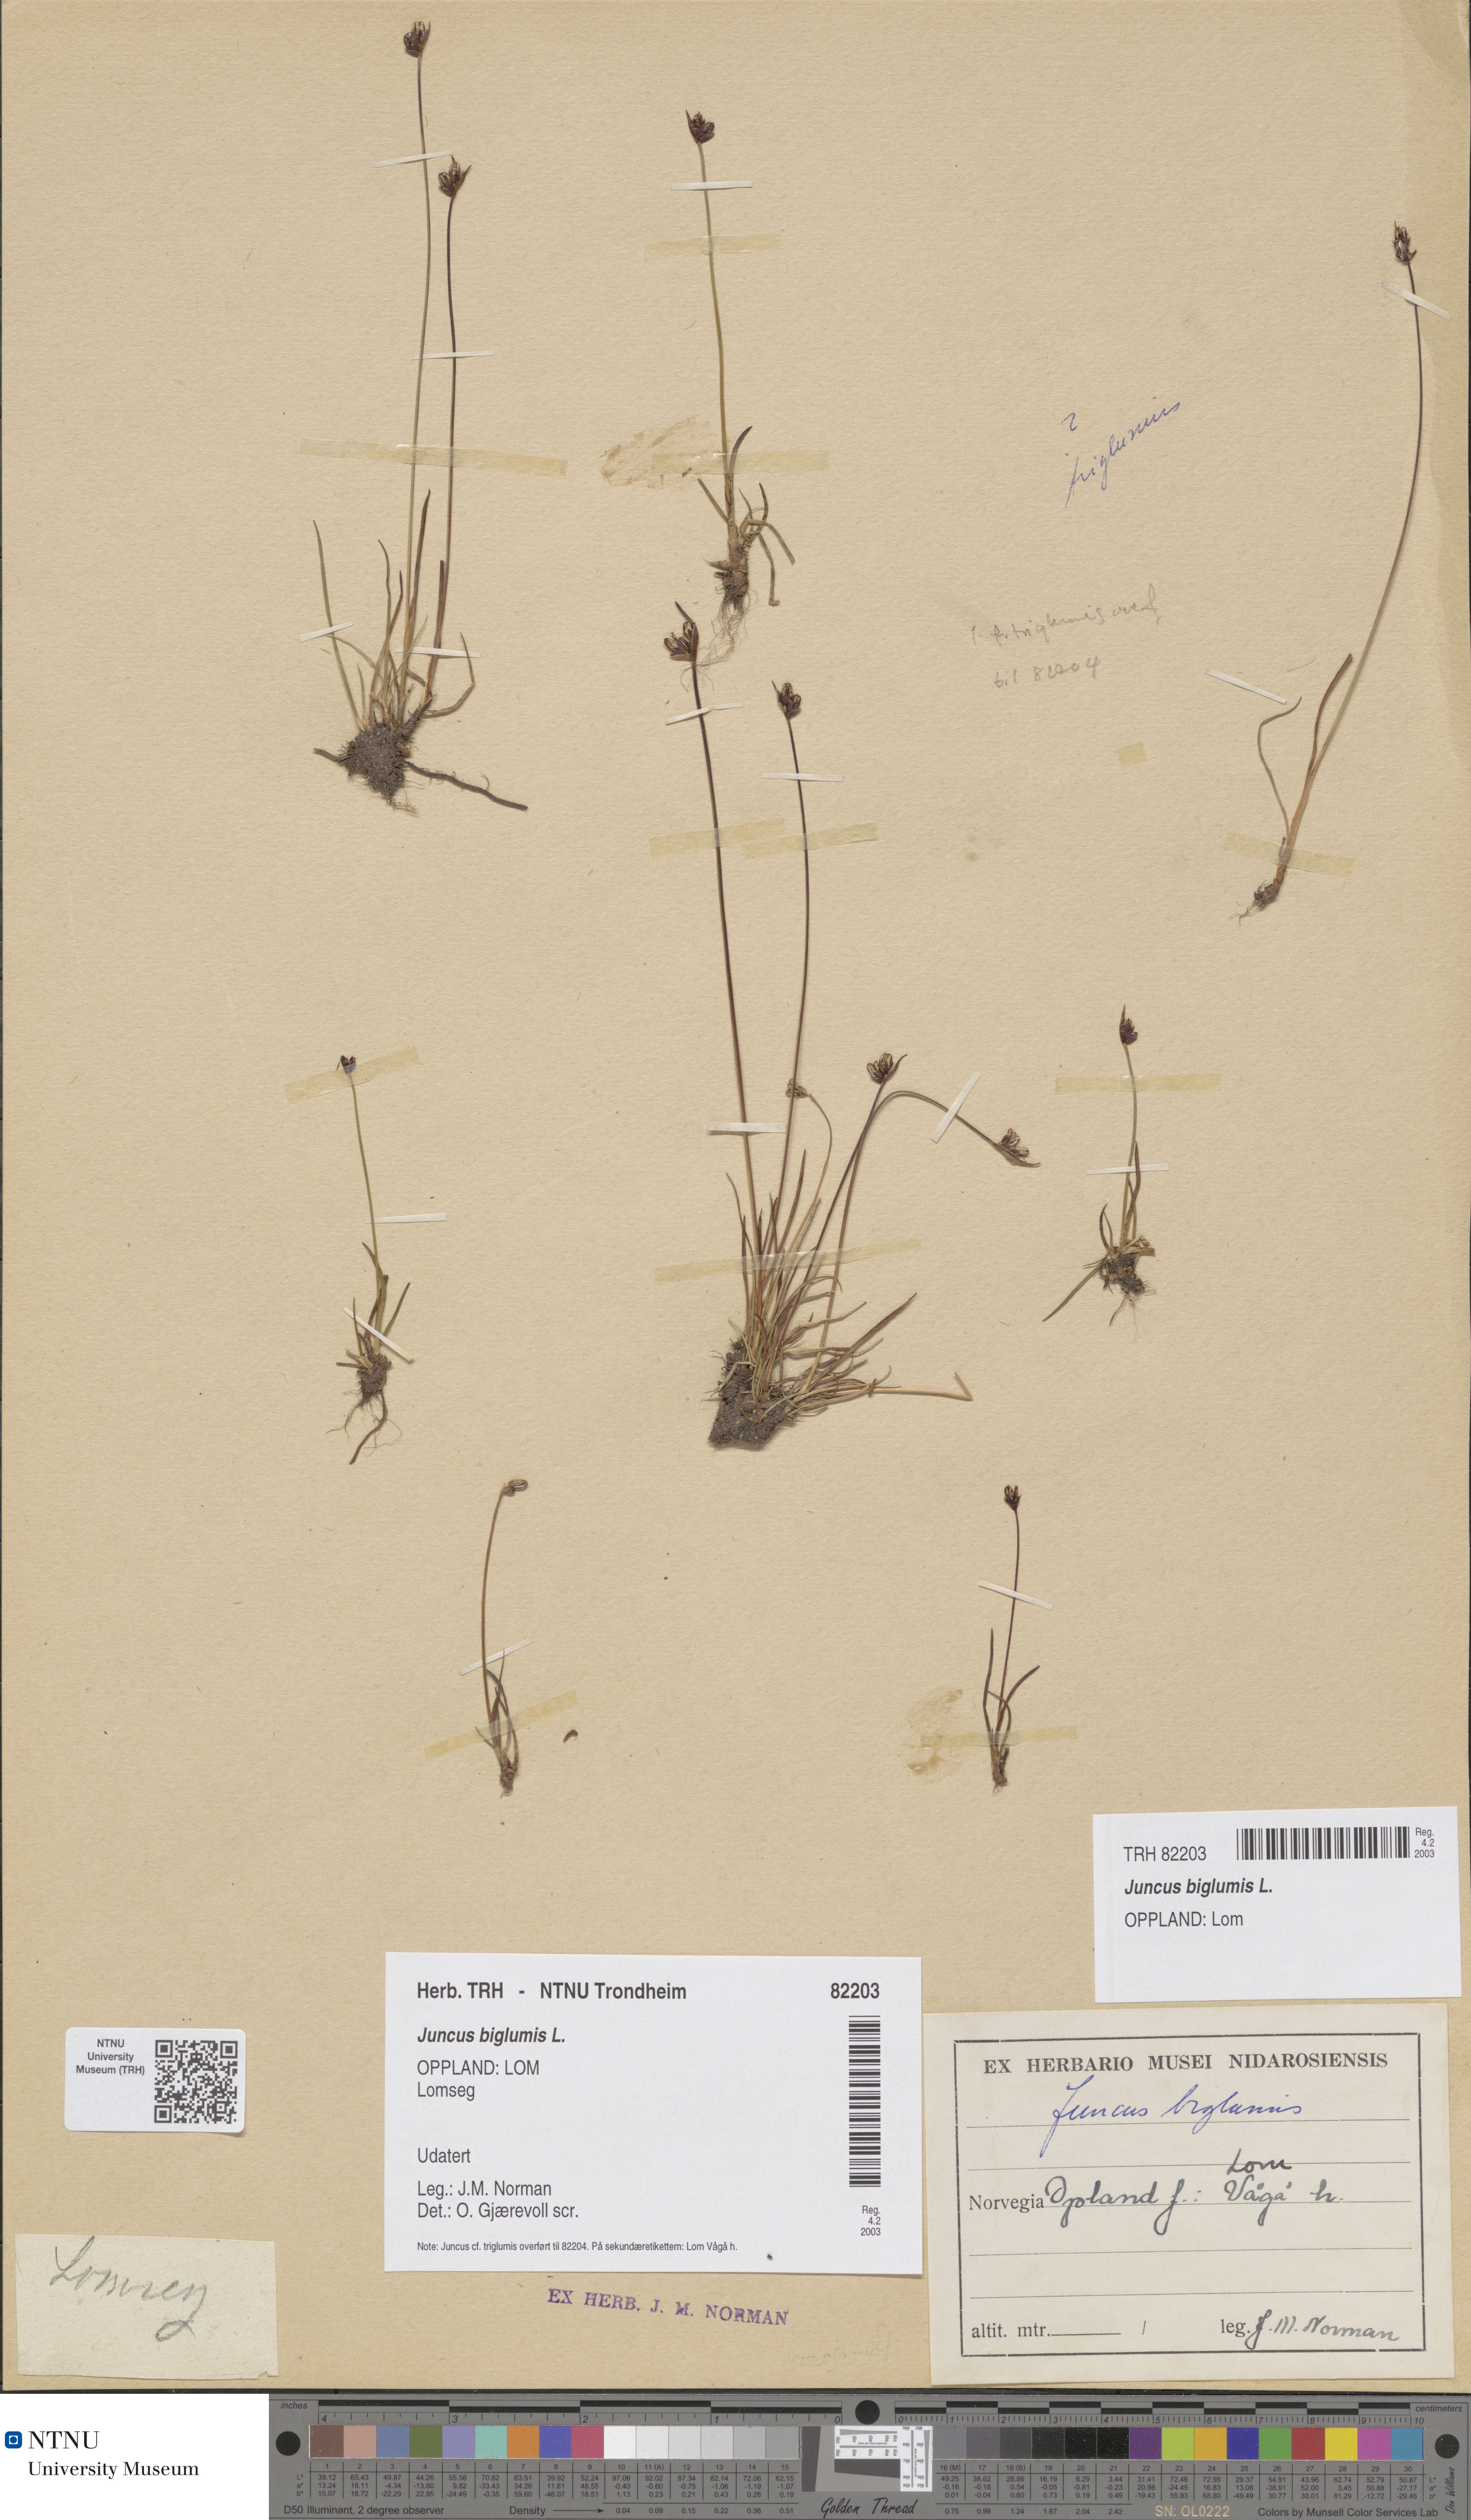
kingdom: Plantae
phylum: Tracheophyta
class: Liliopsida
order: Poales
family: Juncaceae
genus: Juncus
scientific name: Juncus biglumis
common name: Two-flowered rush
